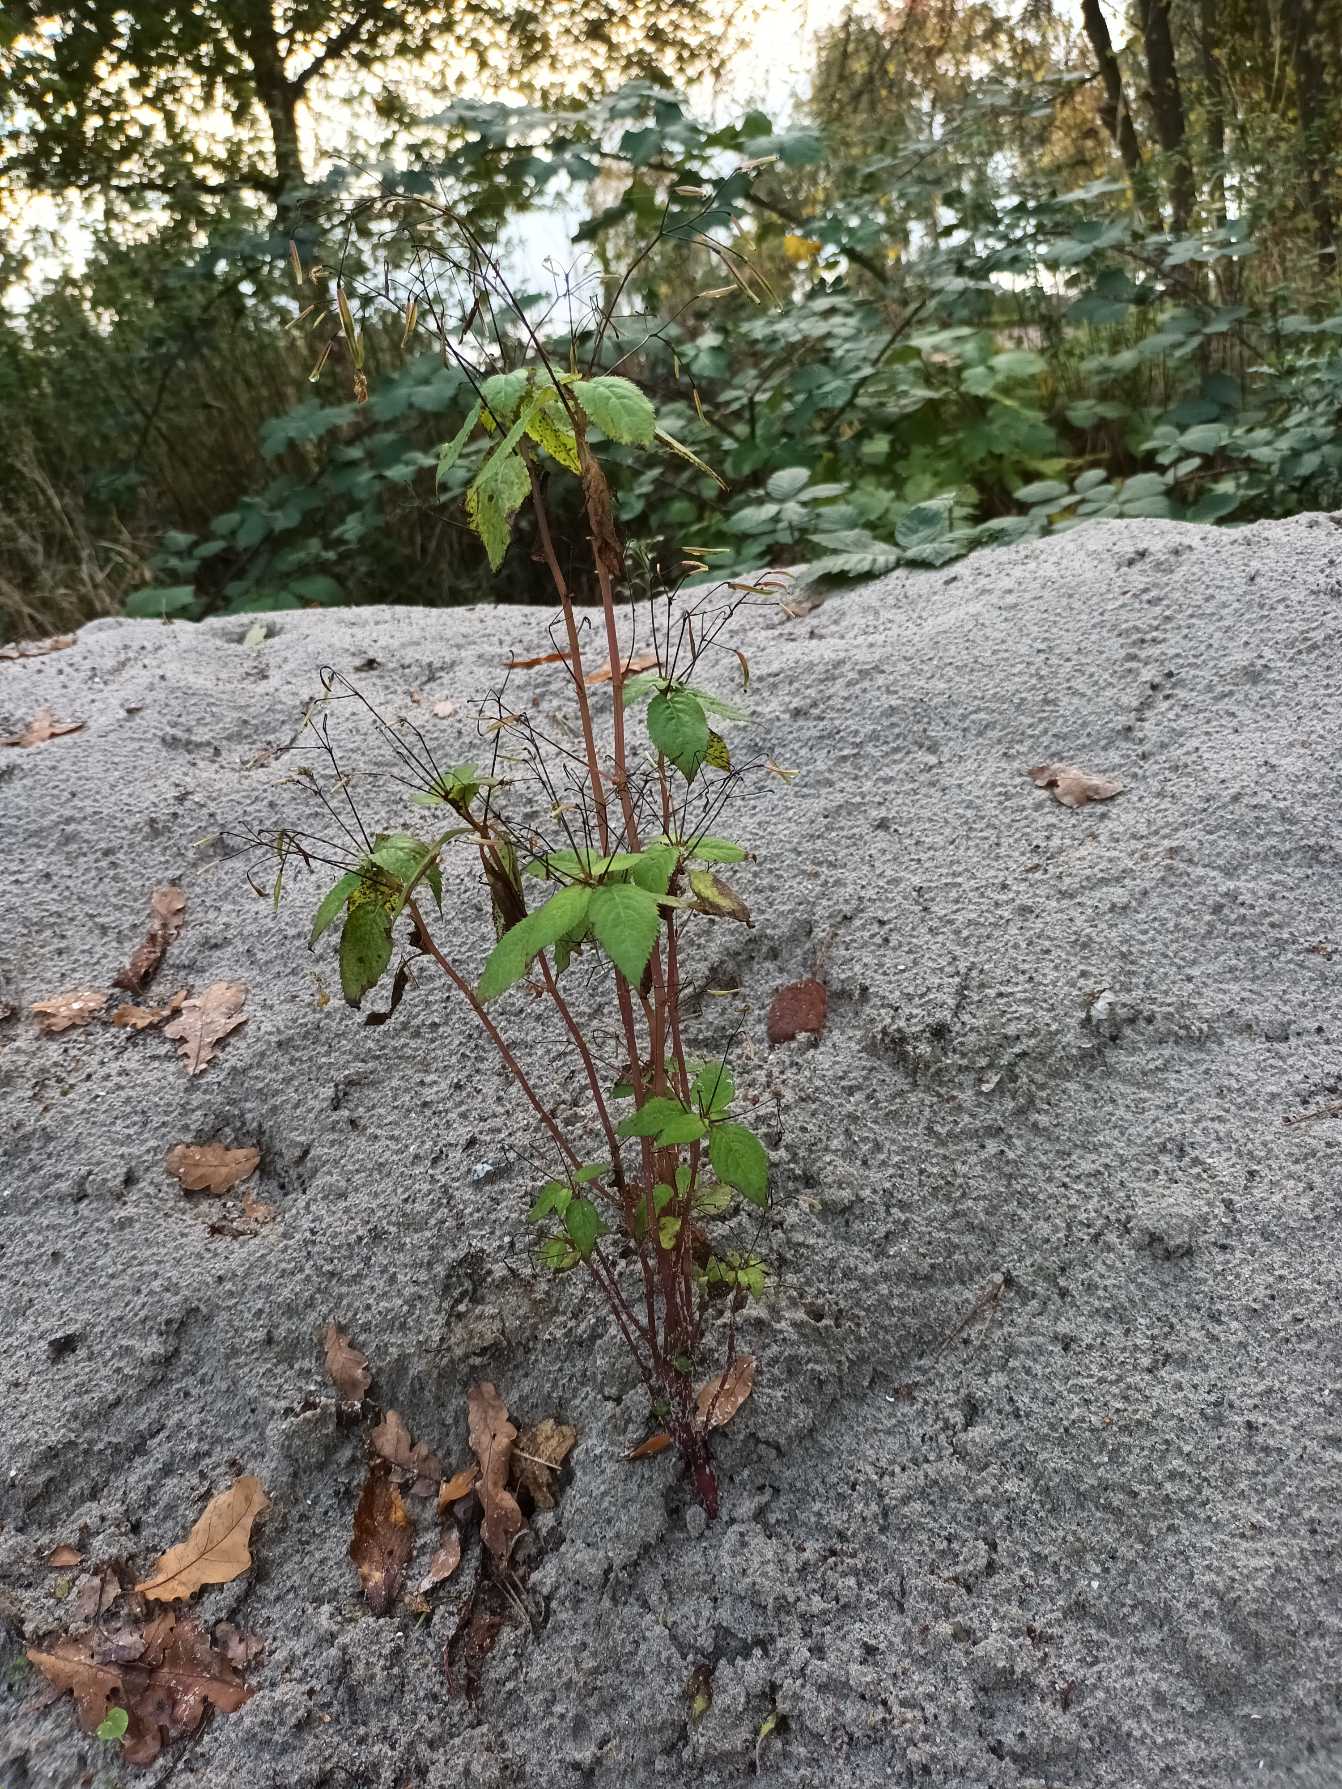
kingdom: Plantae
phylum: Tracheophyta
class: Magnoliopsida
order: Ericales
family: Balsaminaceae
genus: Impatiens
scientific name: Impatiens parviflora
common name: Småblomstret balsamin
